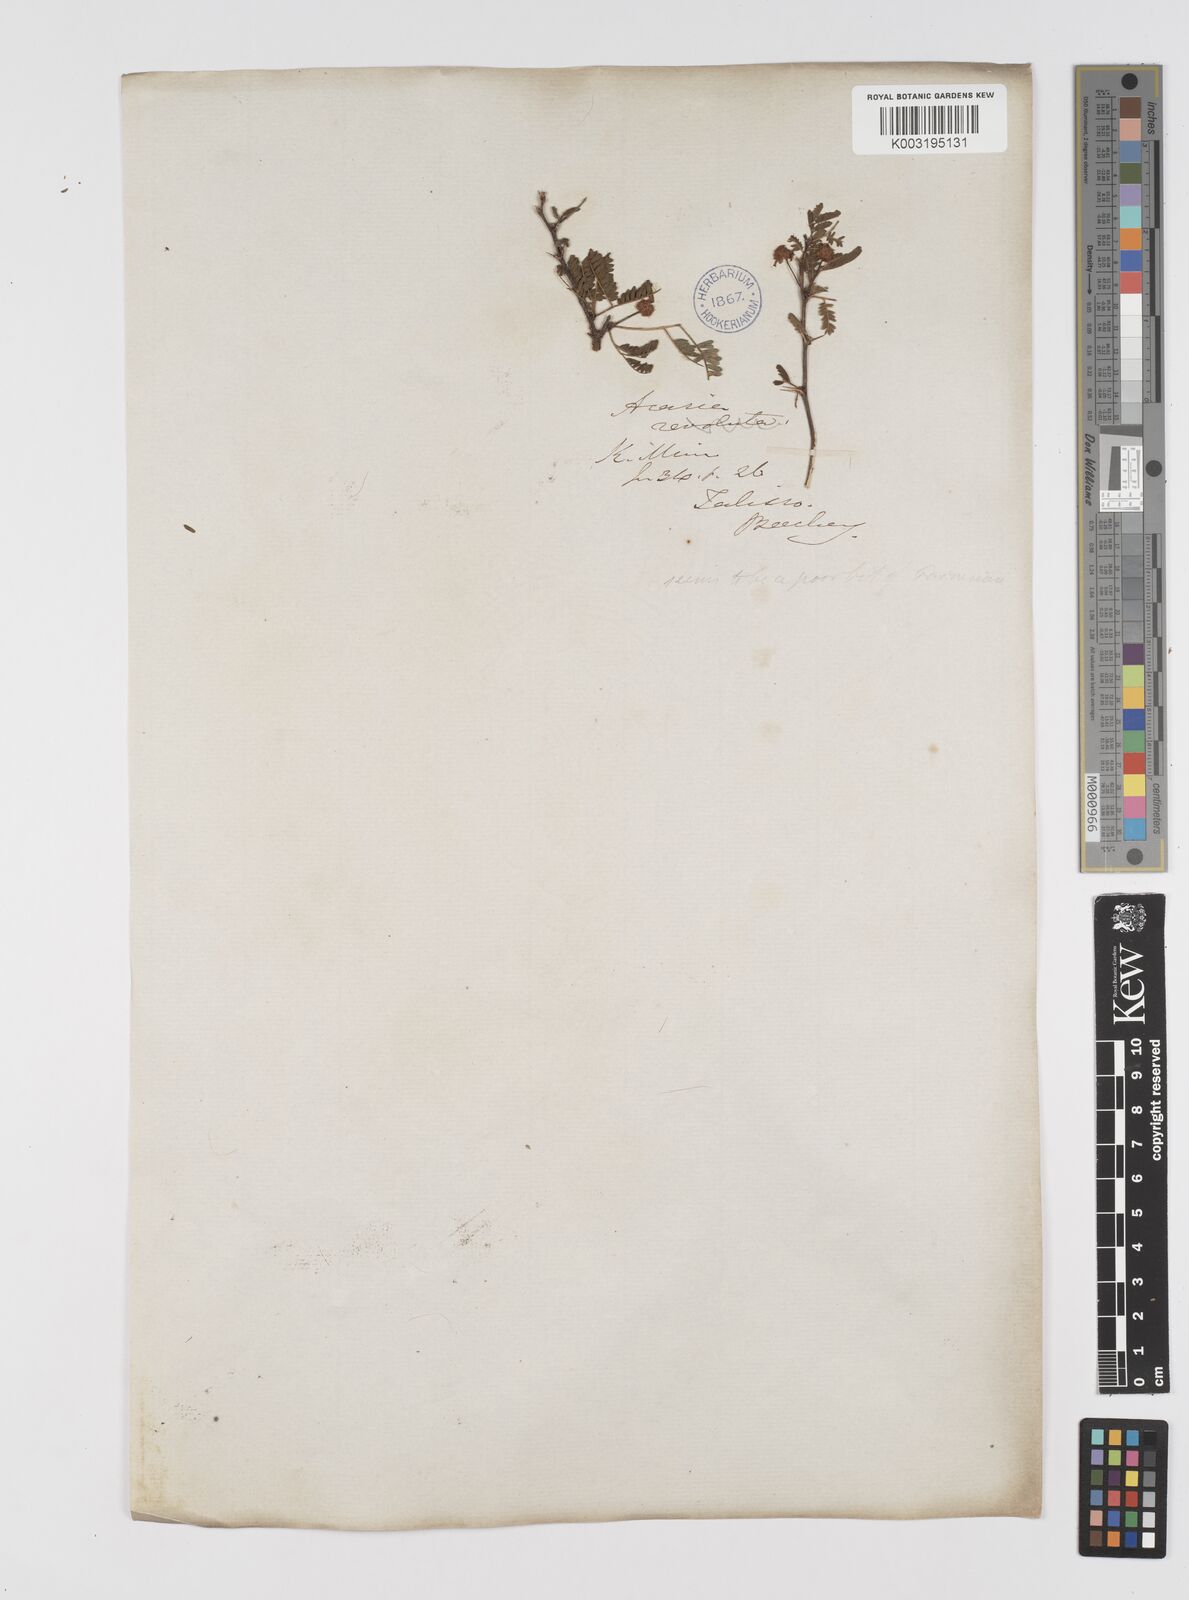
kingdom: Plantae
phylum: Tracheophyta
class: Magnoliopsida
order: Fabales
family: Fabaceae
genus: Vachellia
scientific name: Vachellia farnesiana
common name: Sweet acacia
